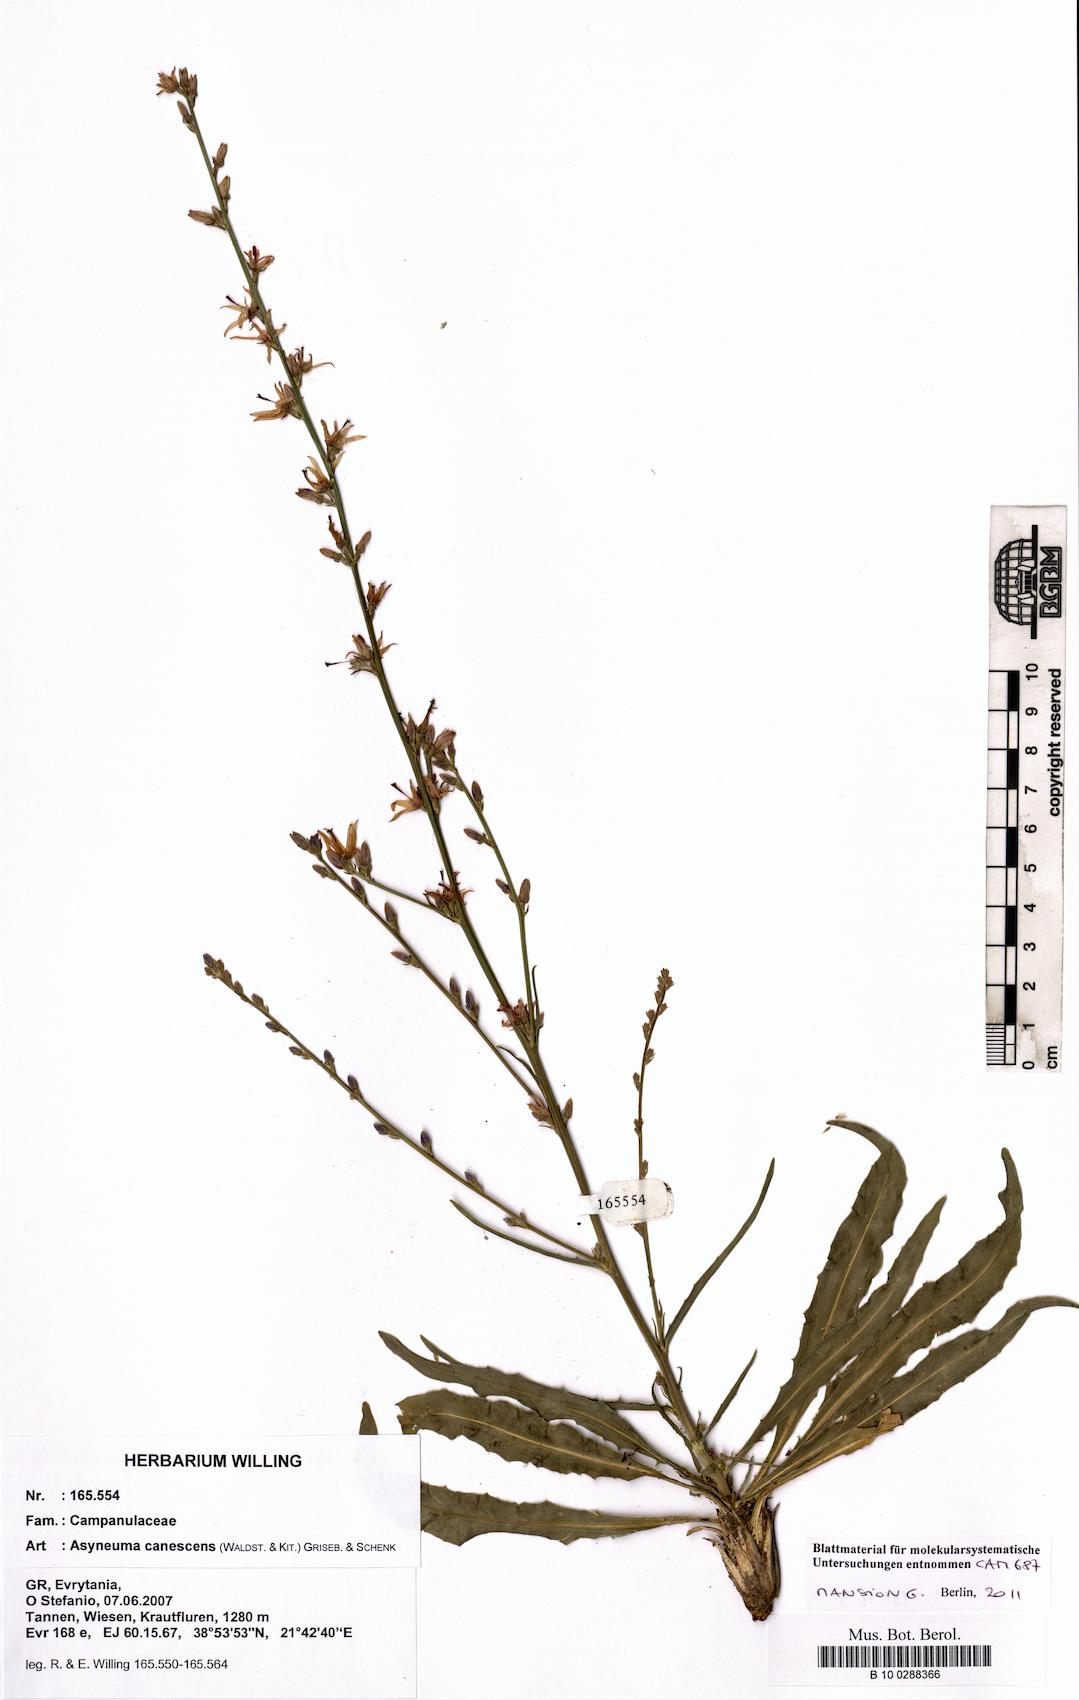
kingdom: Plantae
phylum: Tracheophyta
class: Magnoliopsida
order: Asterales
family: Campanulaceae
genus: Asyneuma
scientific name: Asyneuma limonifolium
